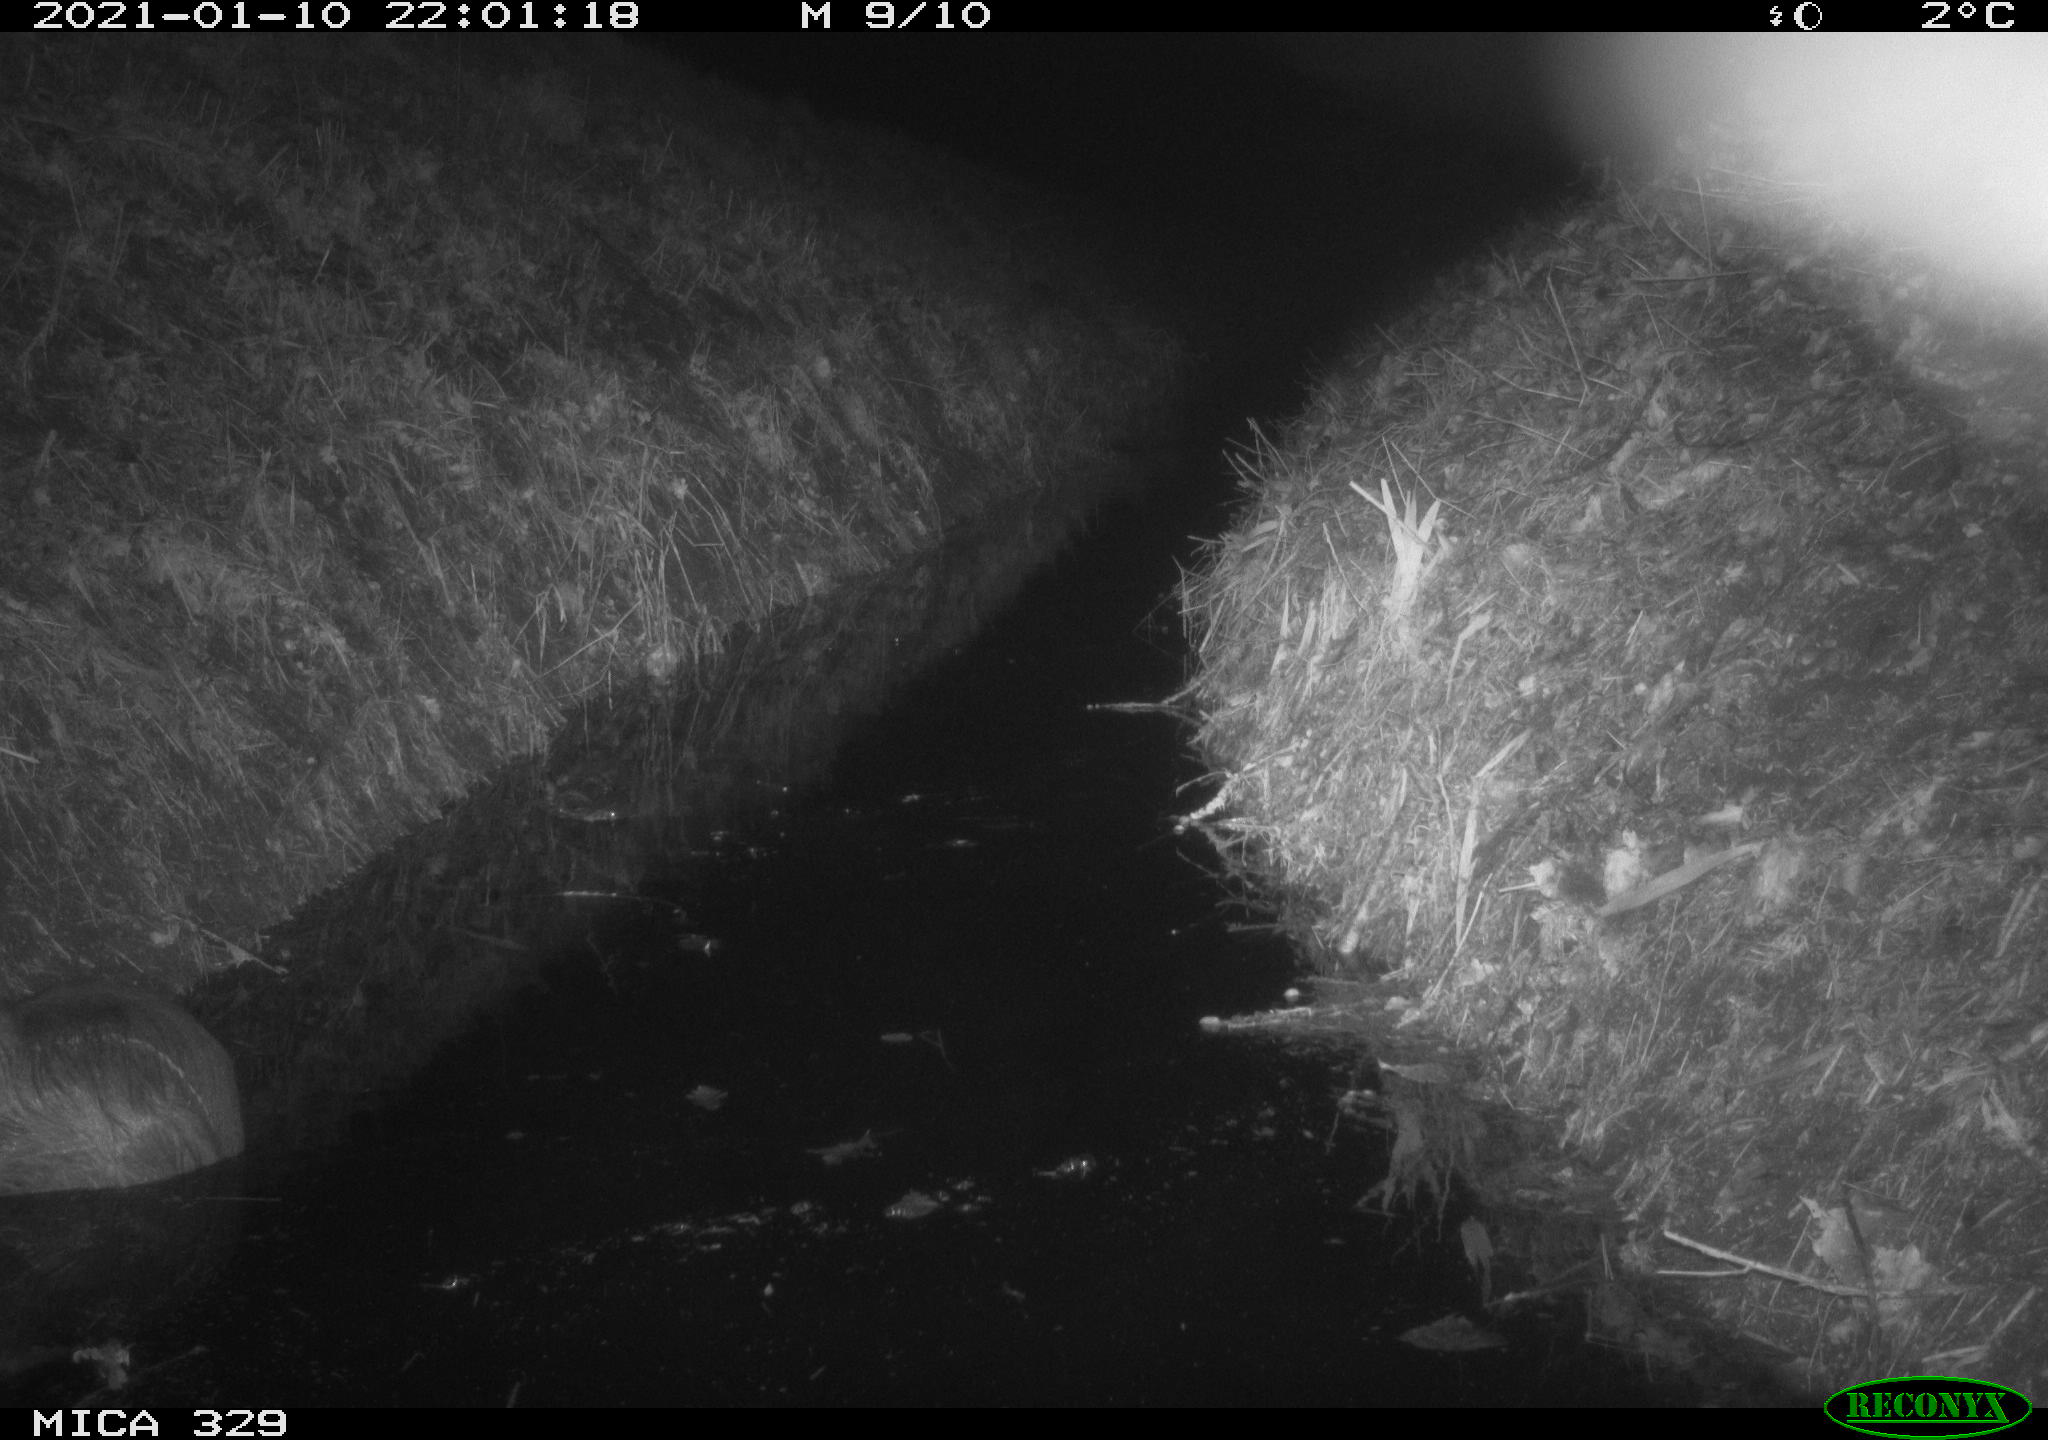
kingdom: Animalia
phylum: Chordata
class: Mammalia
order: Rodentia
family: Myocastoridae
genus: Myocastor
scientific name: Myocastor coypus
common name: Coypu
